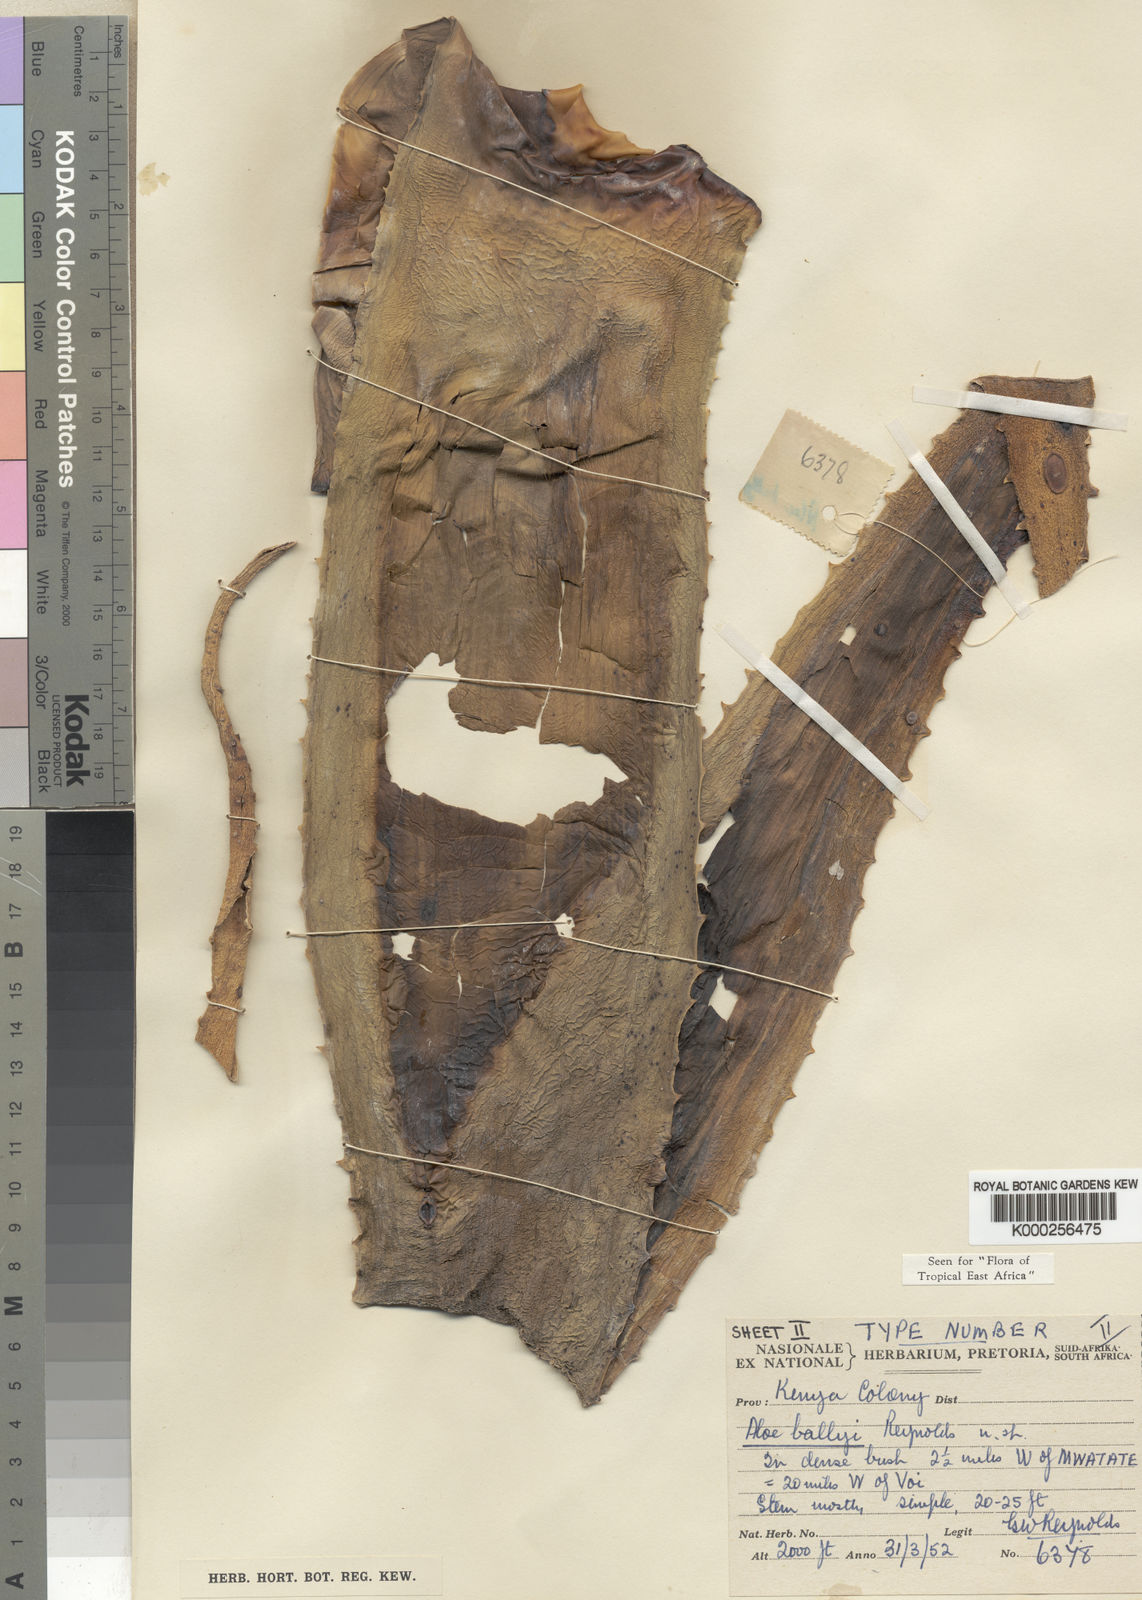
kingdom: Plantae
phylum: Tracheophyta
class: Liliopsida
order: Asparagales
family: Asphodelaceae
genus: Aloe
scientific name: Aloe ballyi
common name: Rat aloe
